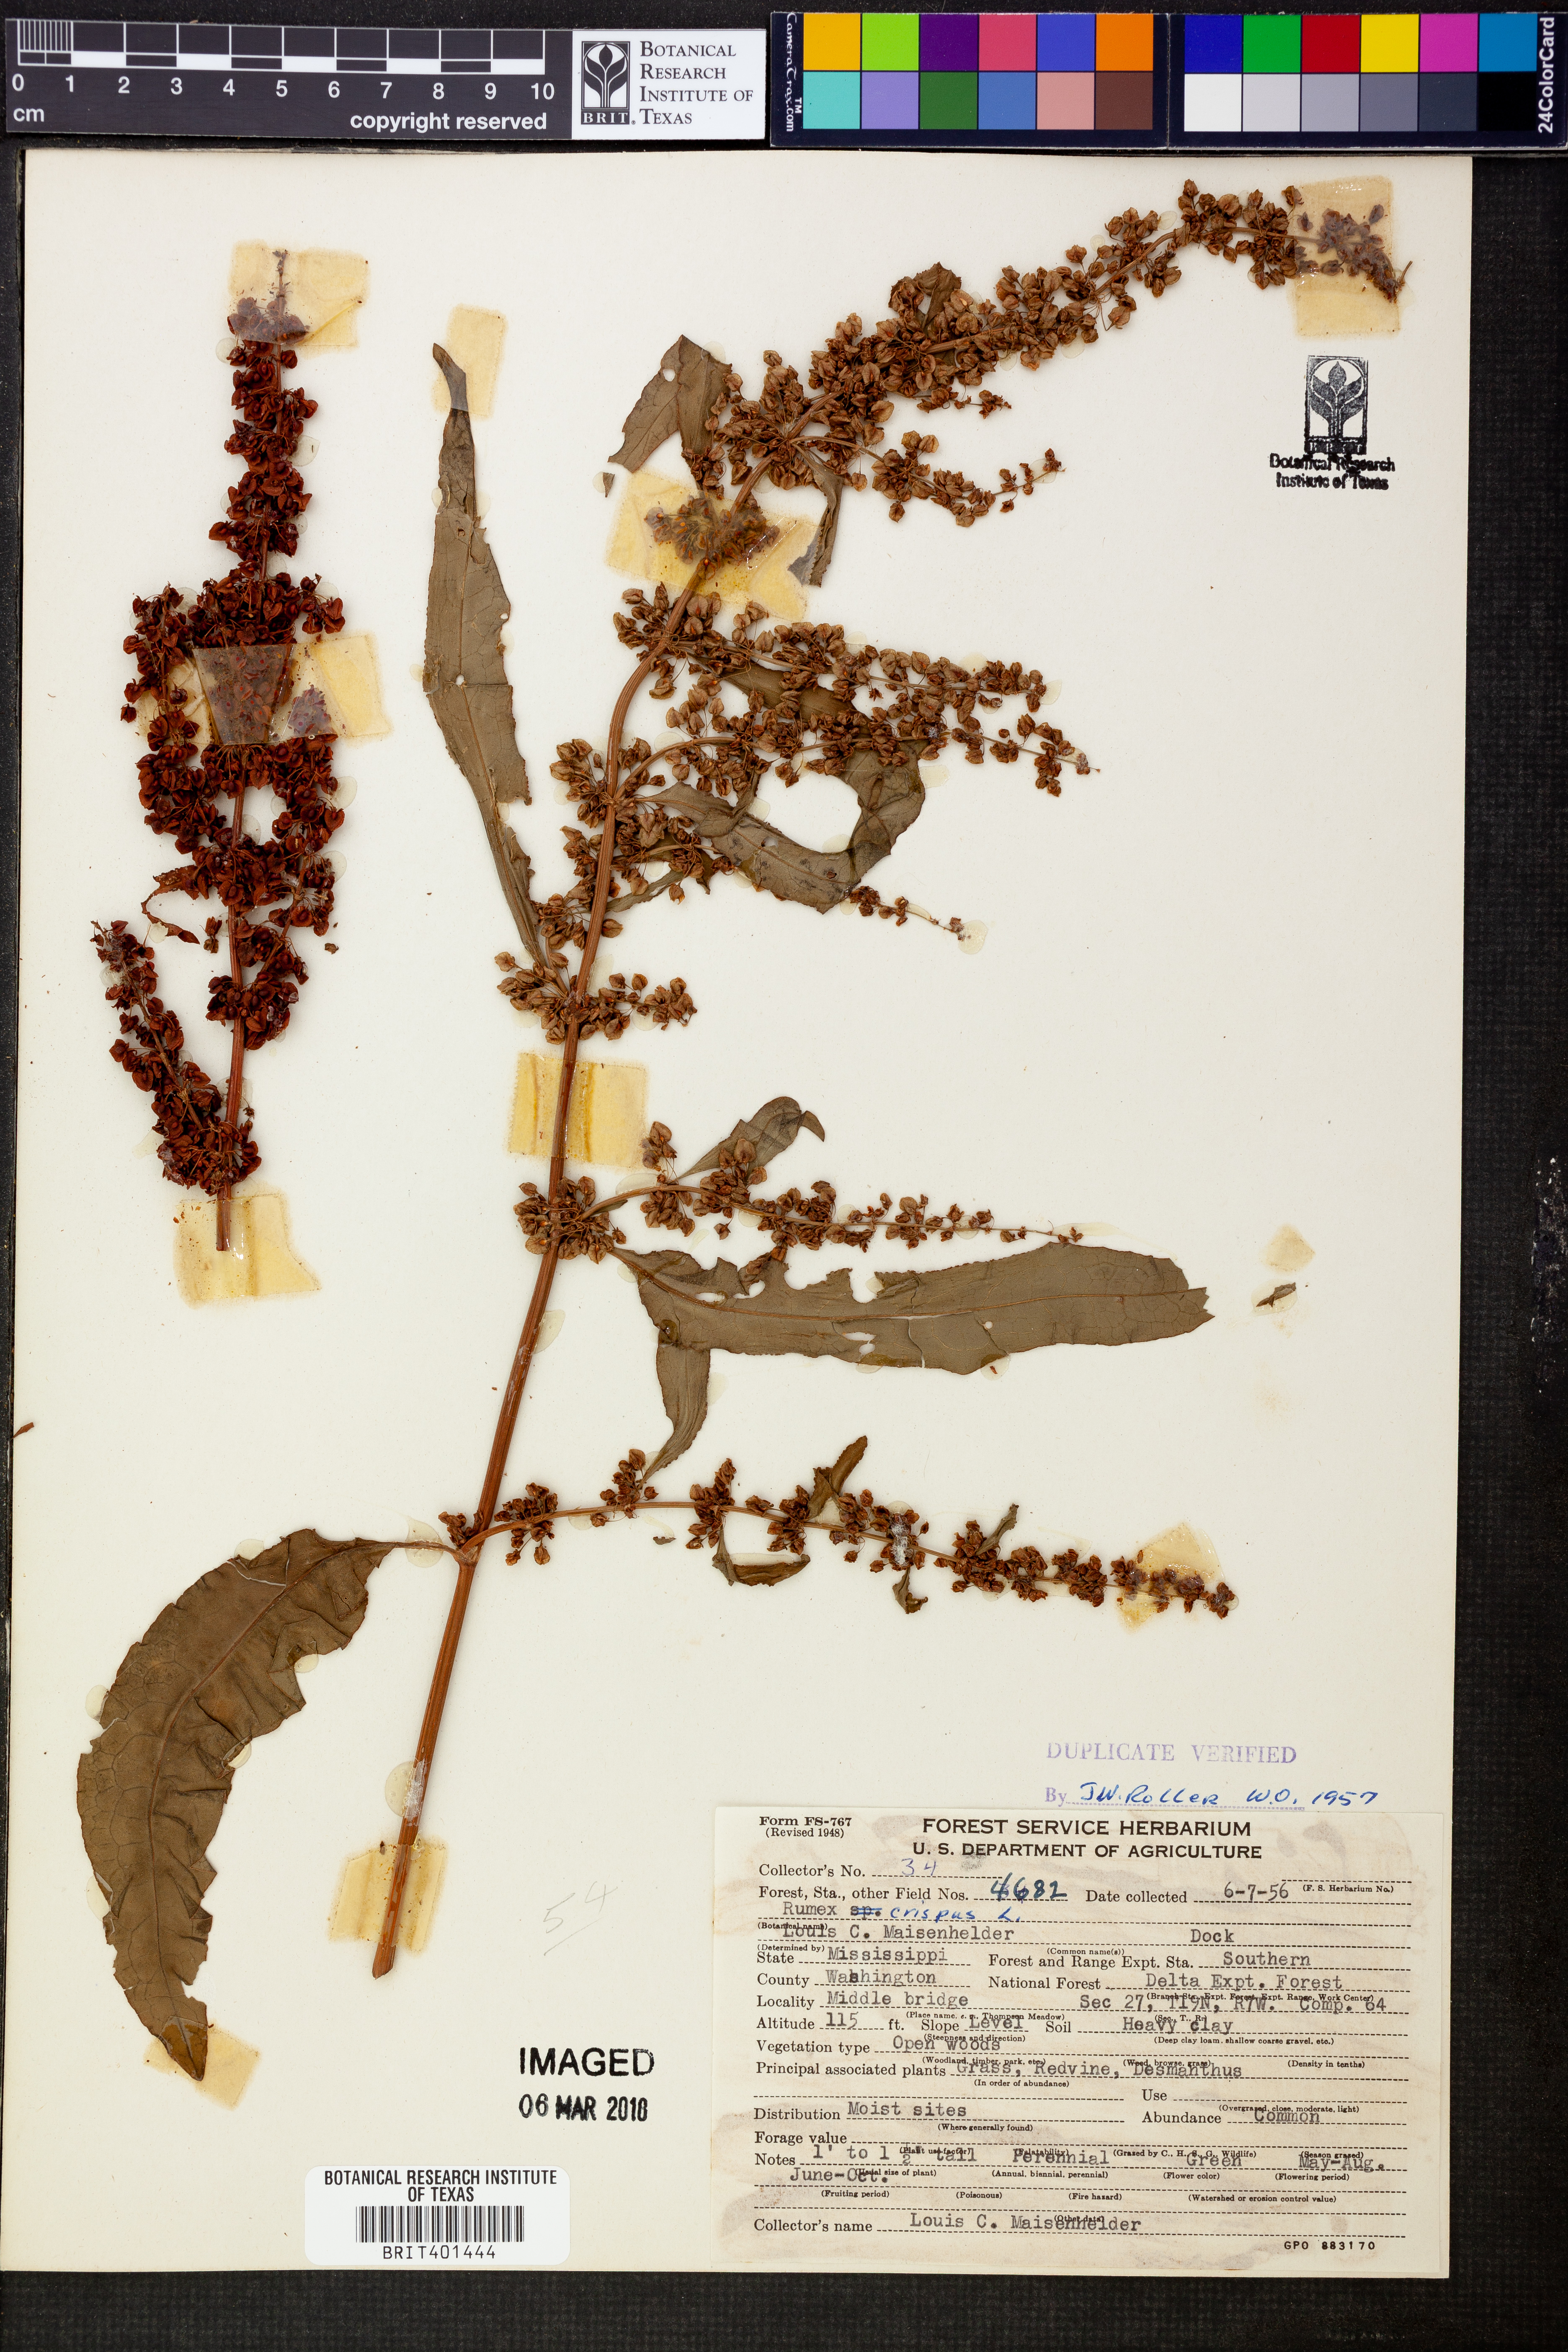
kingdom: Plantae
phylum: Tracheophyta
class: Magnoliopsida
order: Caryophyllales
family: Polygonaceae
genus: Rumex
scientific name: Rumex crispus
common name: Curled dock
